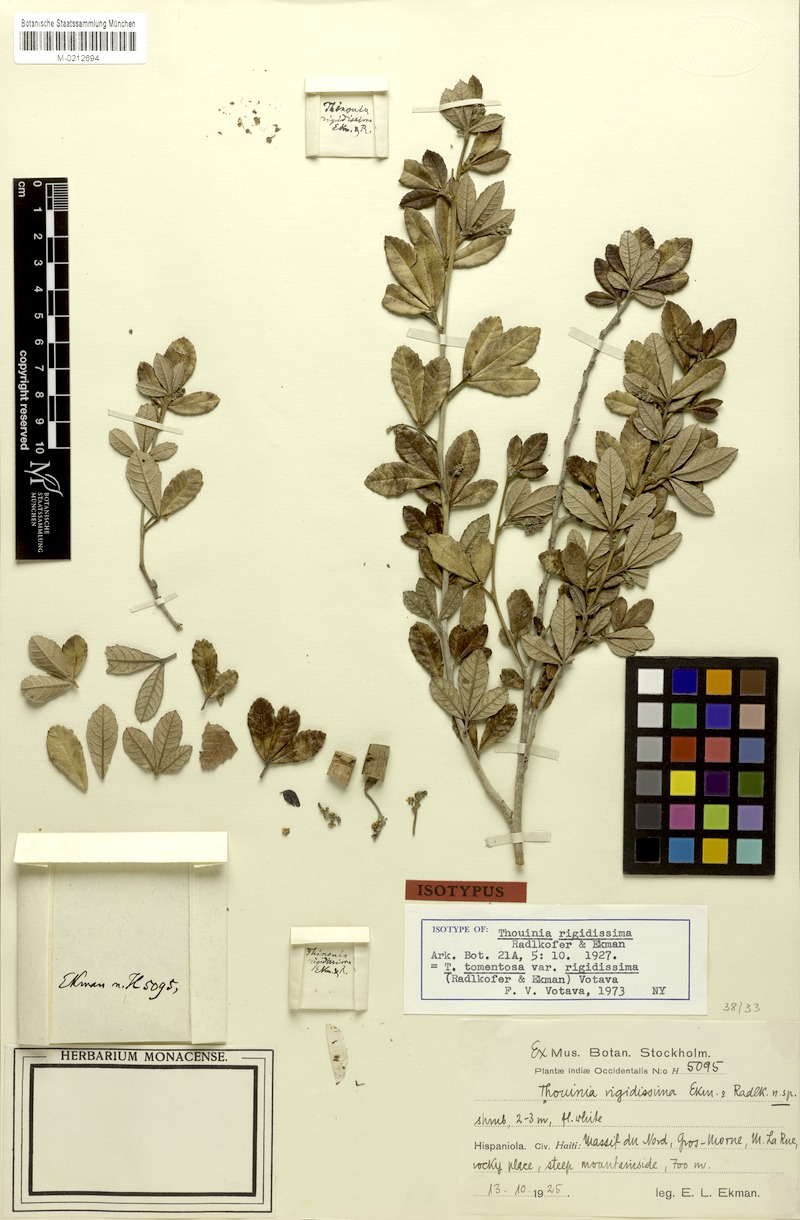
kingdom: Plantae
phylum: Tracheophyta
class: Magnoliopsida
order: Sapindales
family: Sapindaceae
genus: Thouinia
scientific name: Thouinia tomentosa
